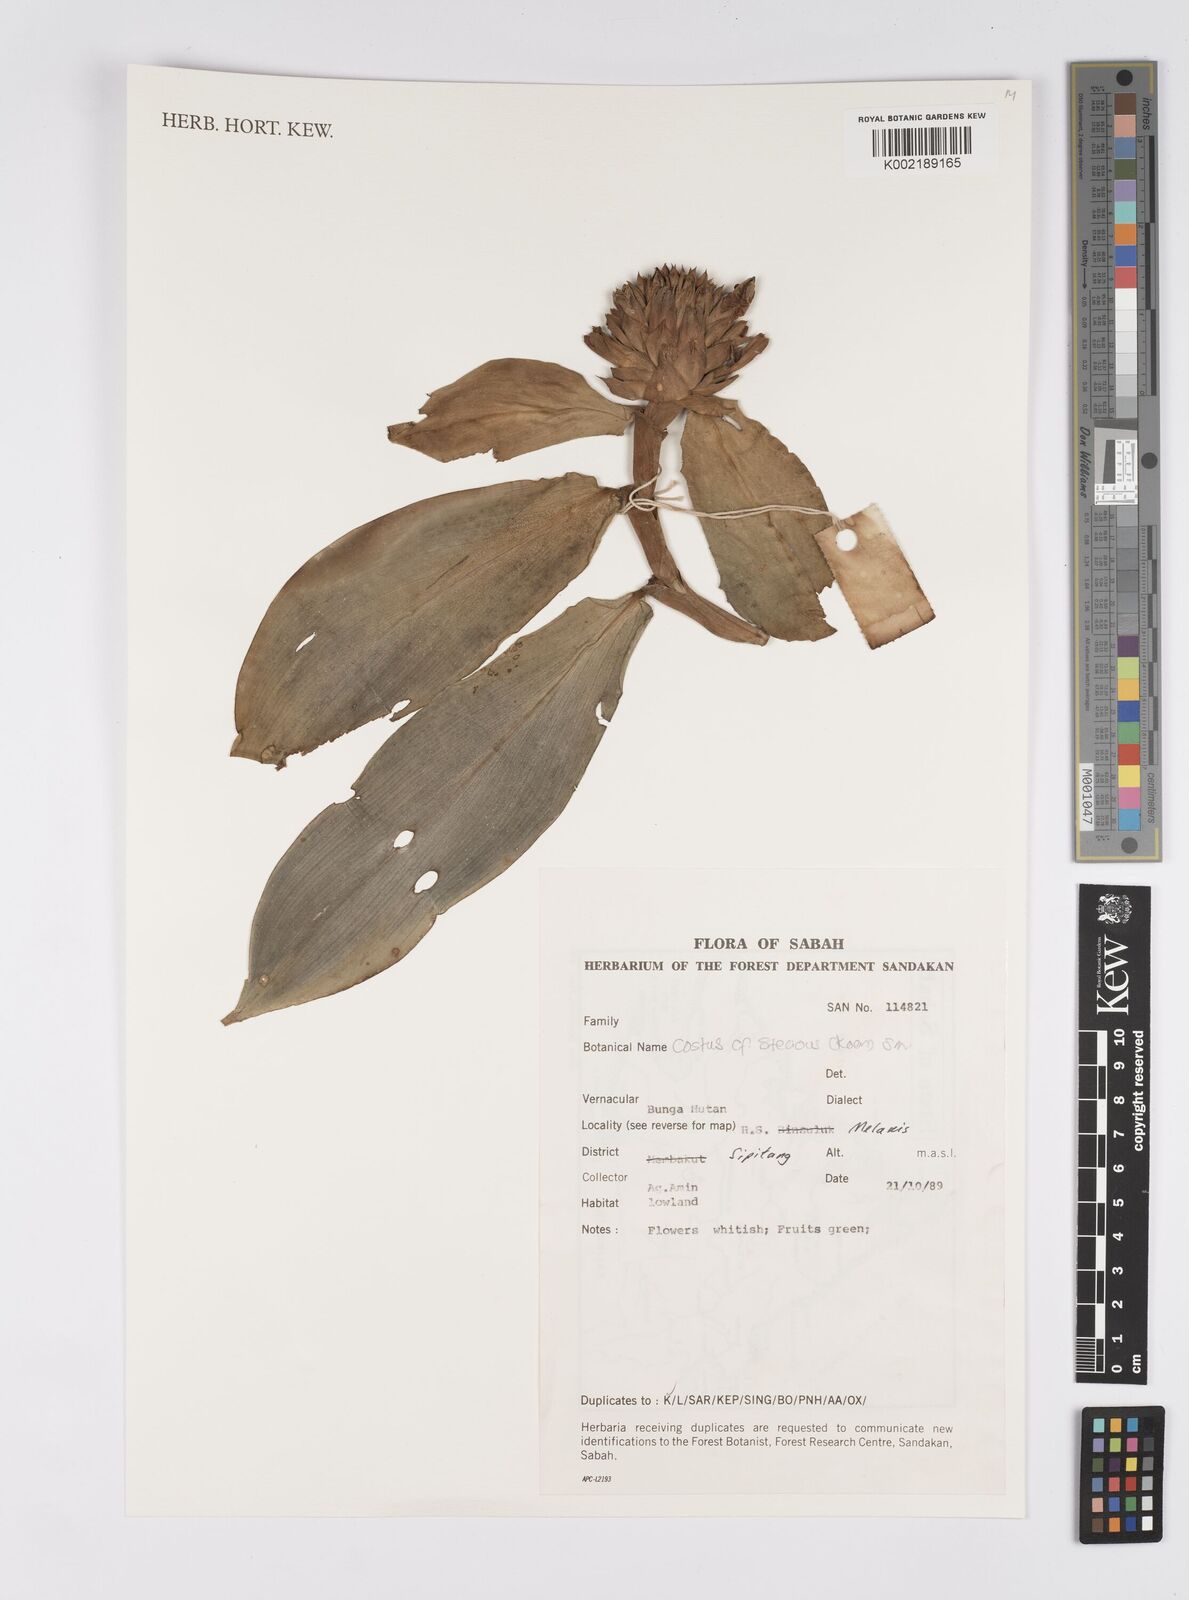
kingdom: Plantae
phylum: Tracheophyta
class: Liliopsida
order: Zingiberales
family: Costaceae
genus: Hellenia
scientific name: Hellenia speciosa
